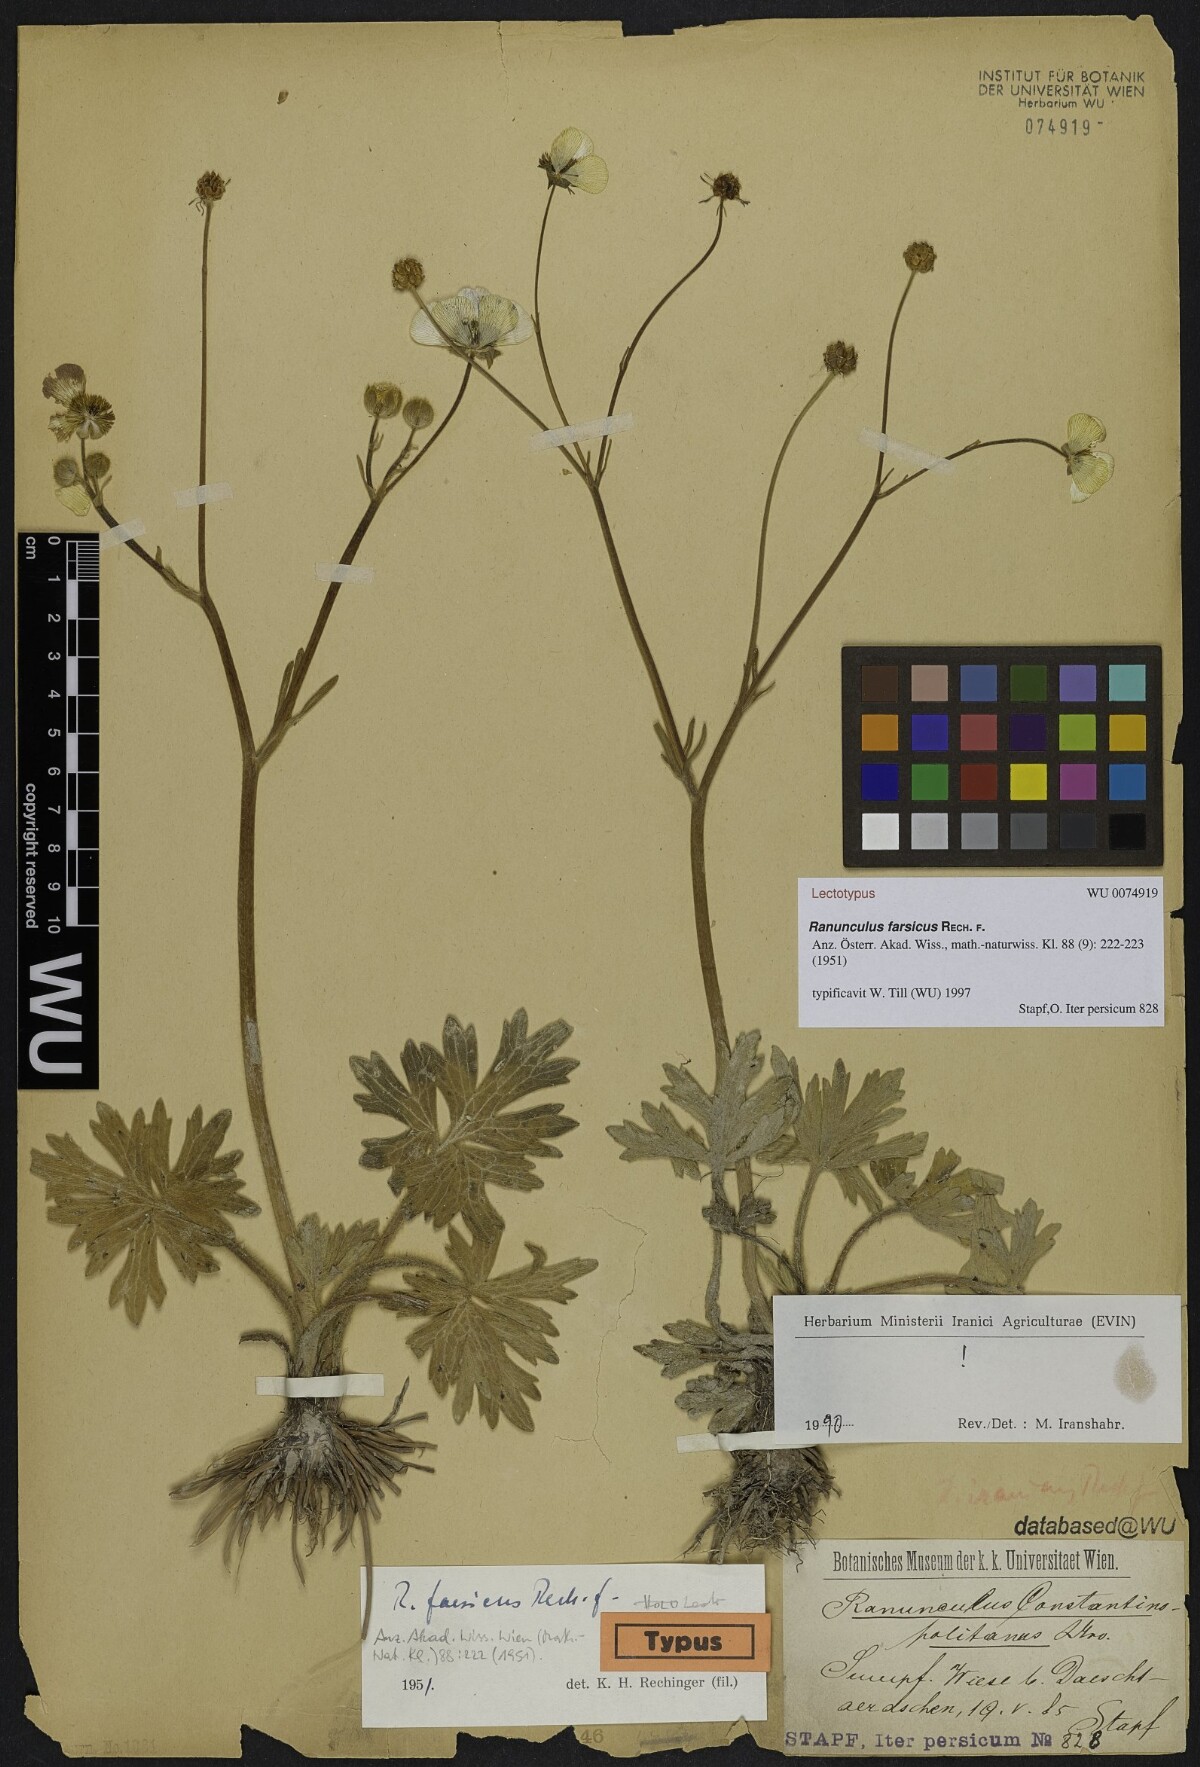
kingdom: Plantae
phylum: Tracheophyta
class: Magnoliopsida
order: Ranunculales
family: Ranunculaceae
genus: Ranunculus
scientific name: Ranunculus constantinopolitanus
